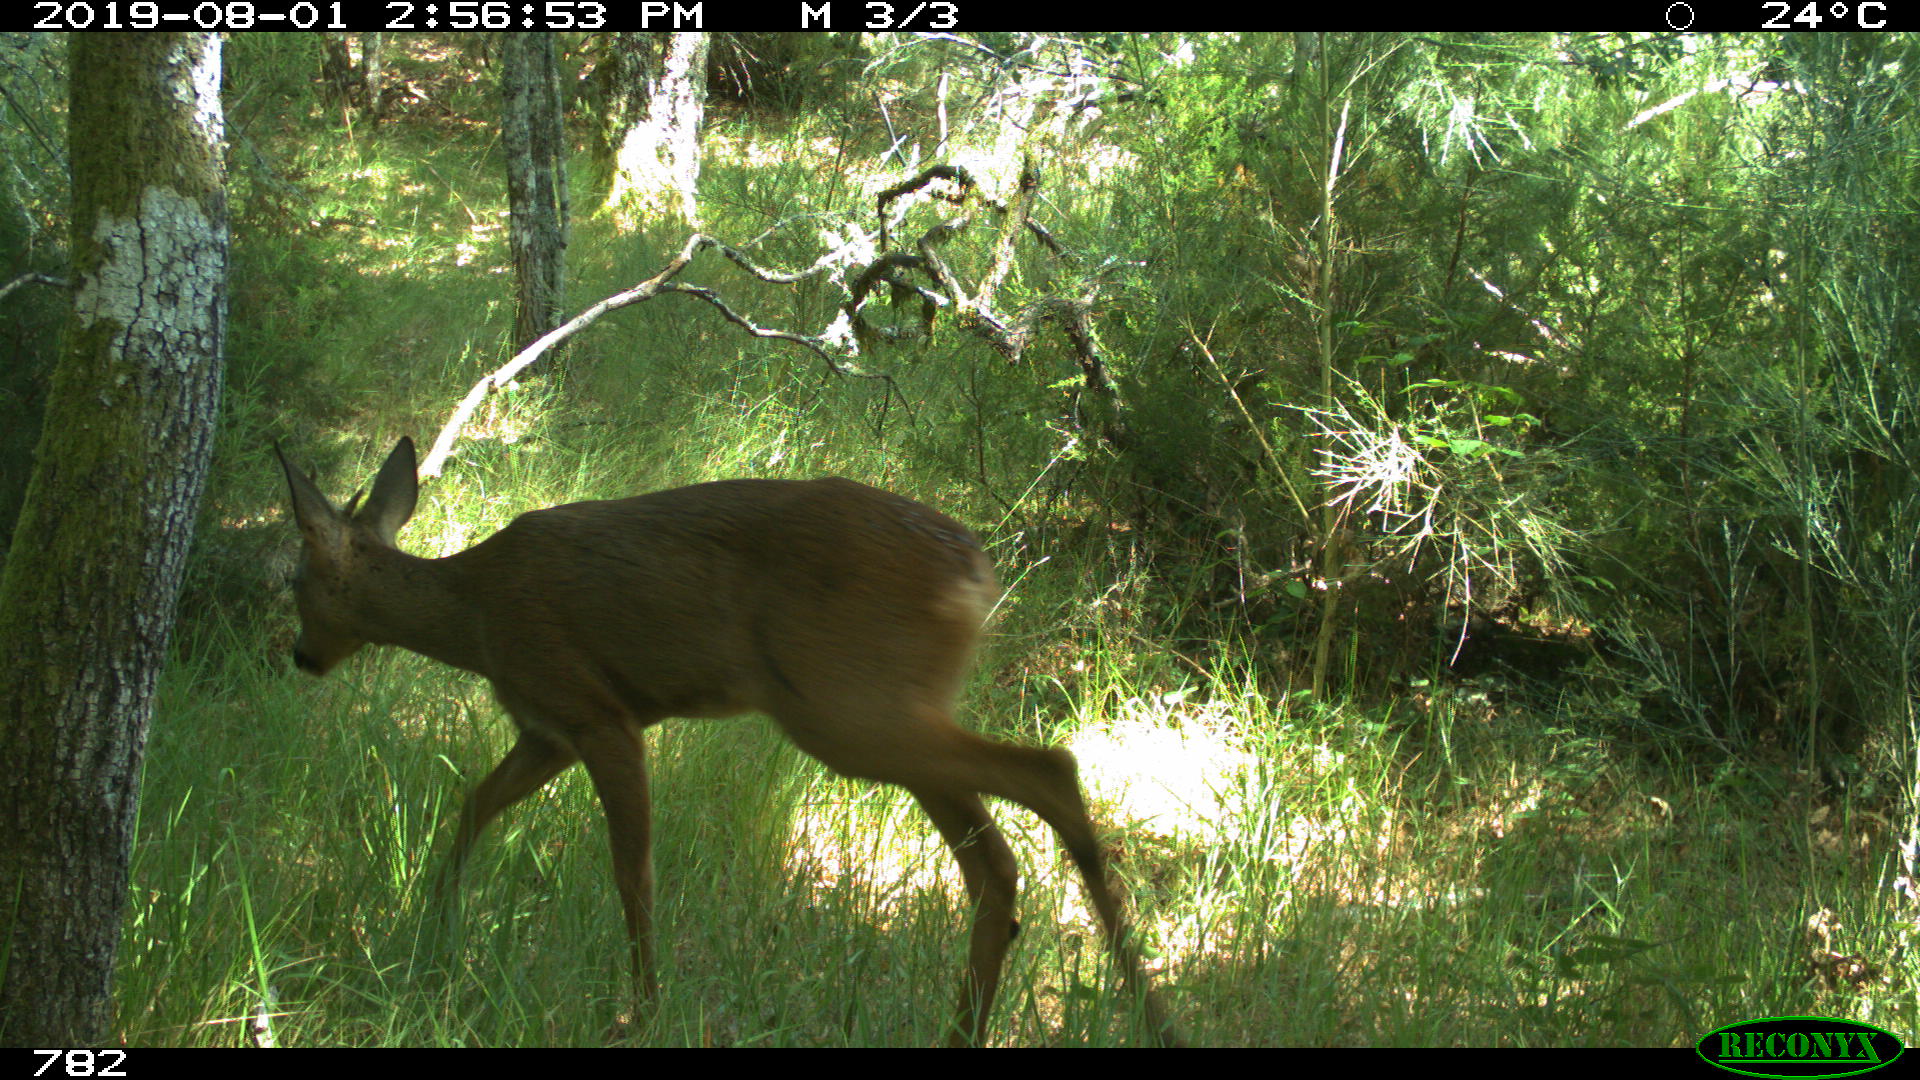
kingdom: Animalia
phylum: Chordata
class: Mammalia
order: Artiodactyla
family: Cervidae
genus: Capreolus
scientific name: Capreolus capreolus
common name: Western roe deer
